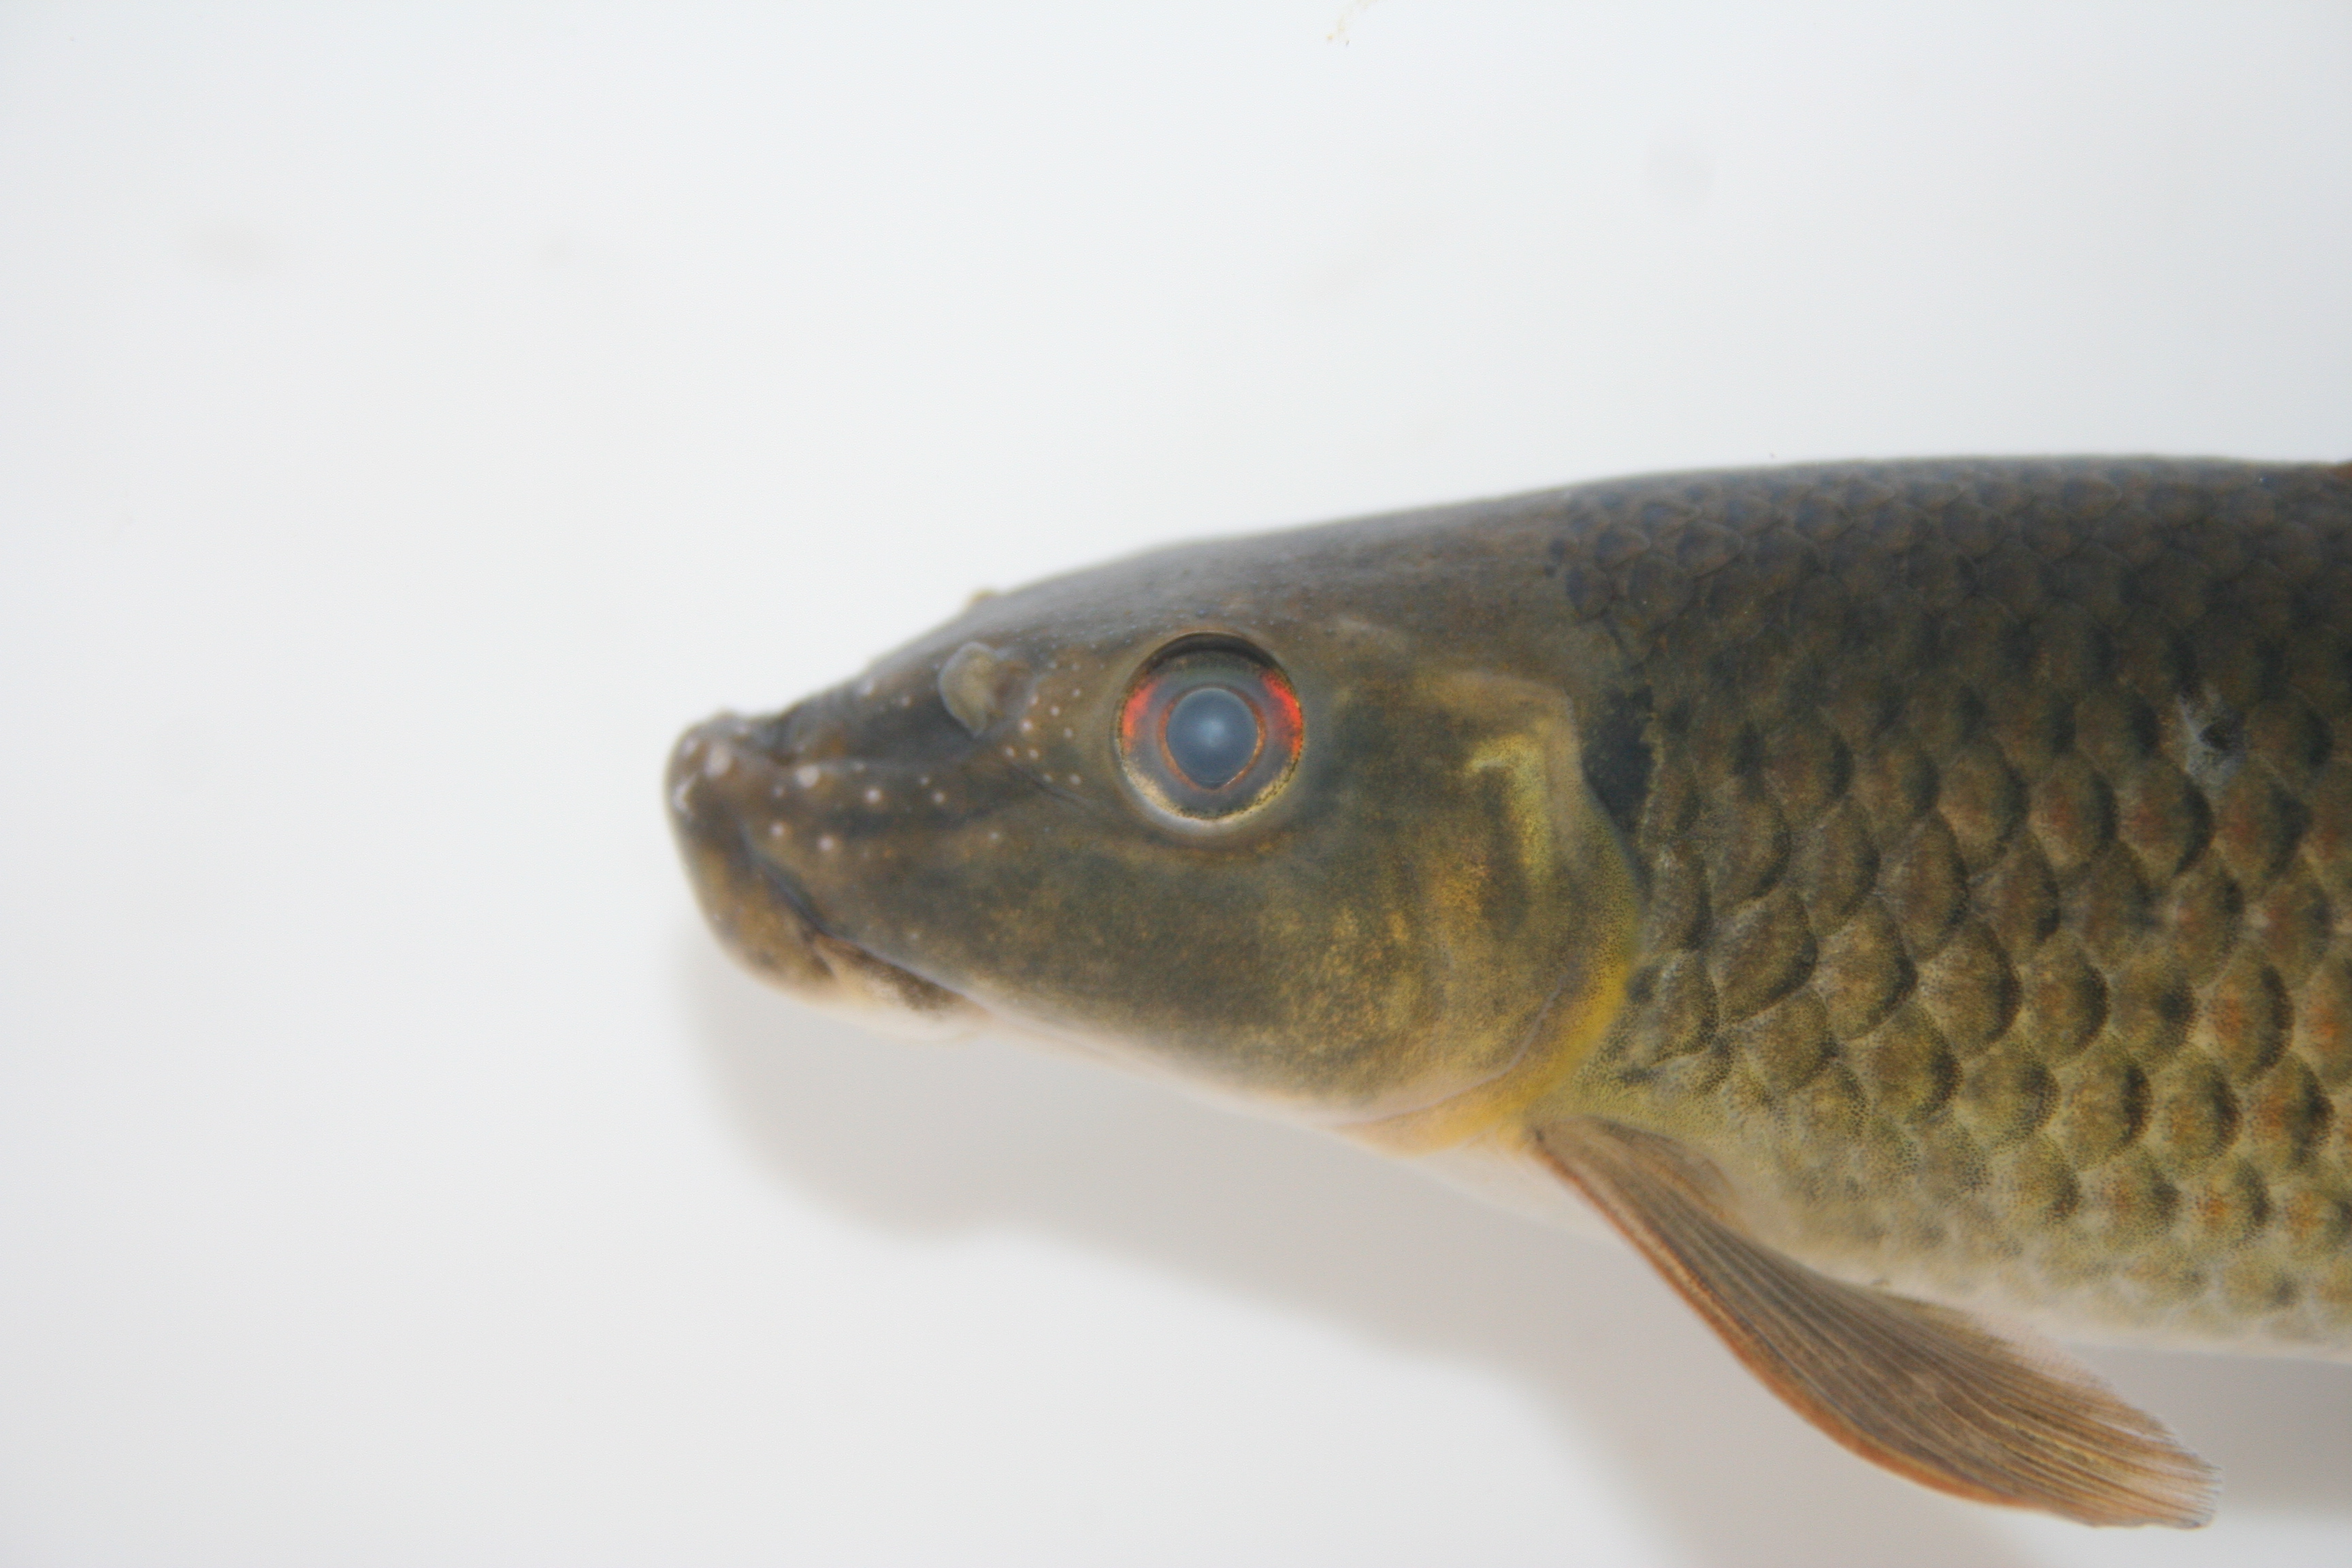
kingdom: Animalia
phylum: Chordata
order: Cypriniformes
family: Cyprinidae
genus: Labeo
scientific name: Labeo annectens
